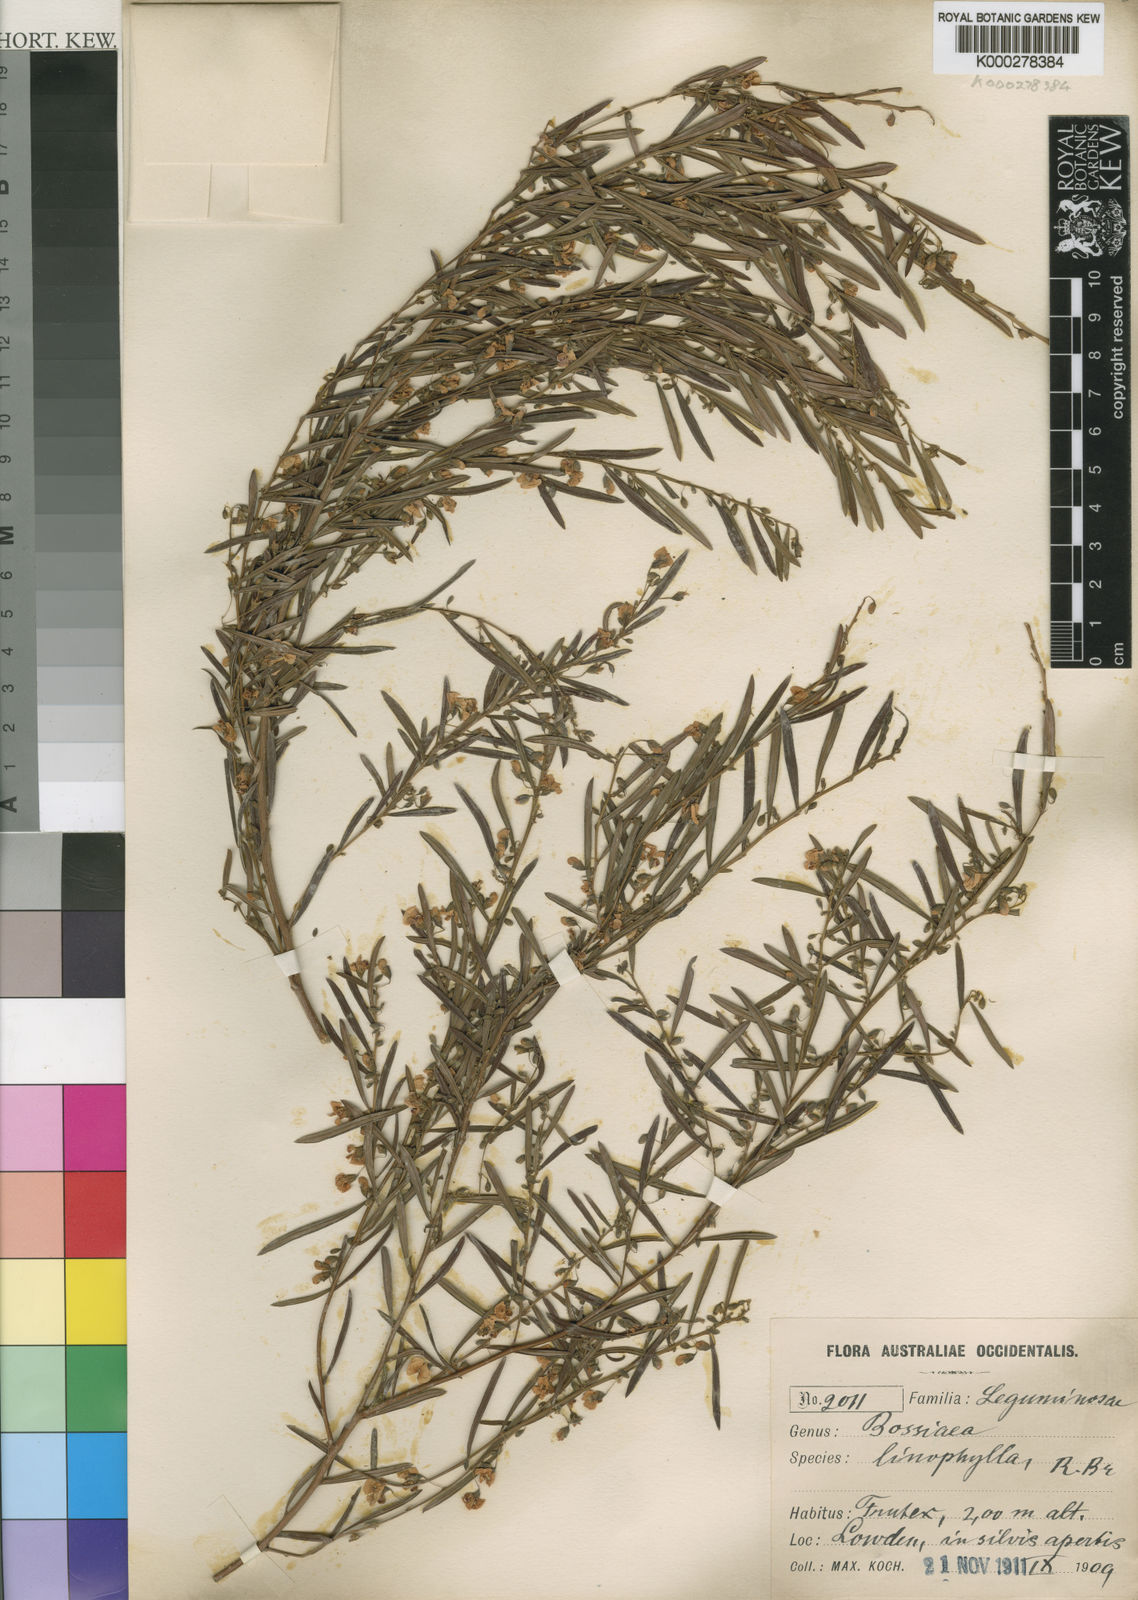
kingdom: Plantae
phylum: Tracheophyta
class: Magnoliopsida
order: Fabales
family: Fabaceae
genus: Bossiaea
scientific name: Bossiaea linophylla
